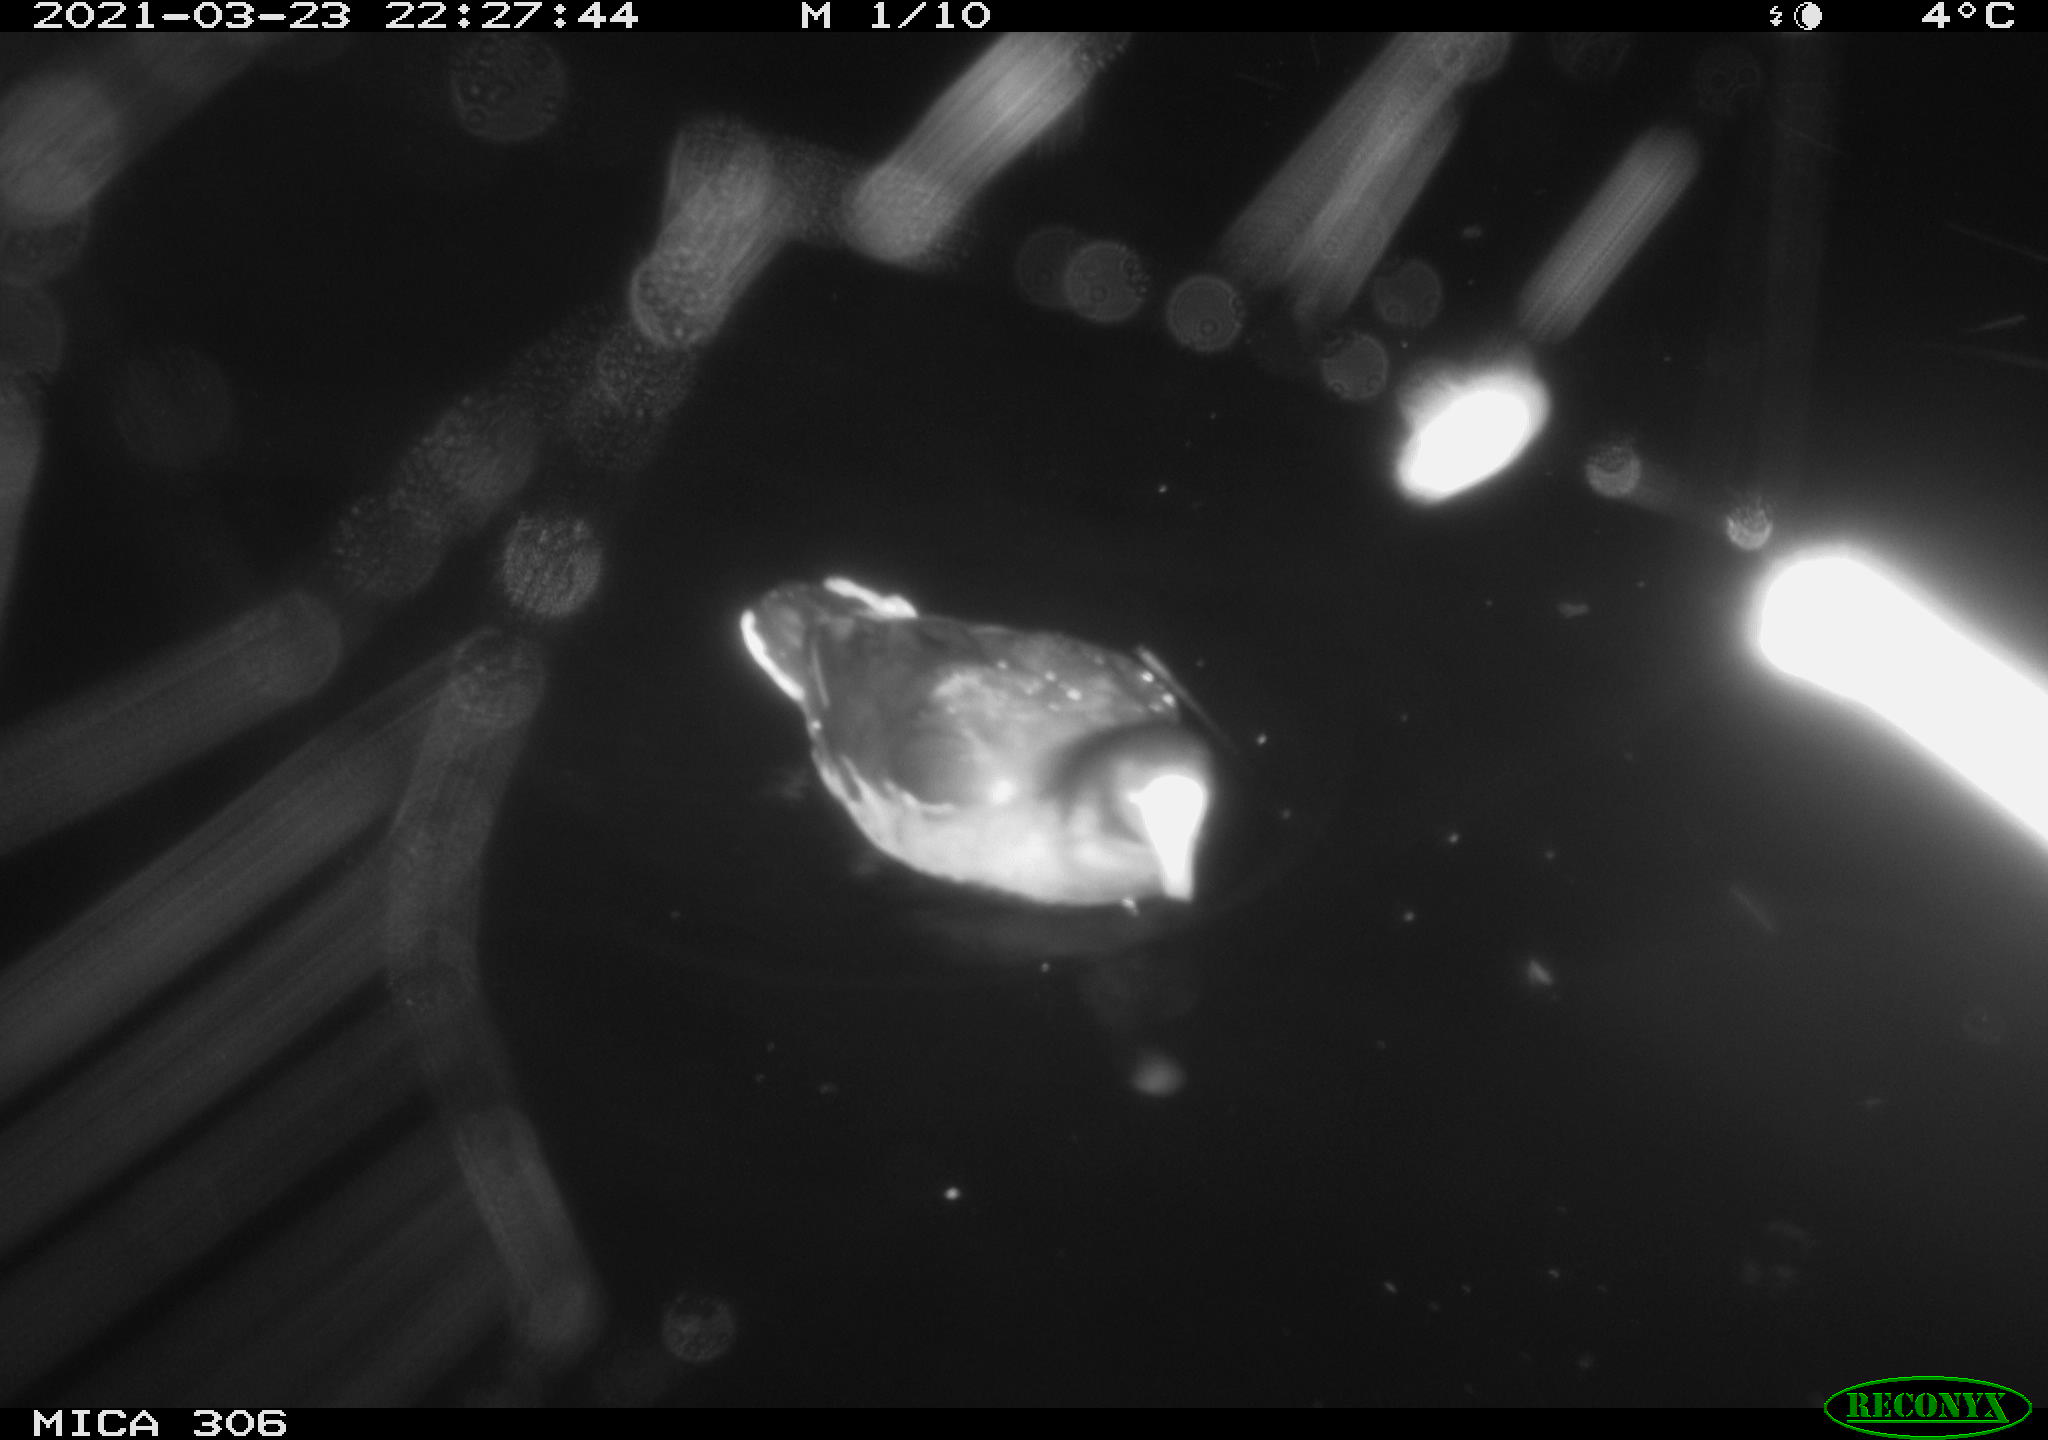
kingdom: Animalia
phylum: Chordata
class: Aves
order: Gruiformes
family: Rallidae
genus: Gallinula
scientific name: Gallinula chloropus
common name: Common moorhen
